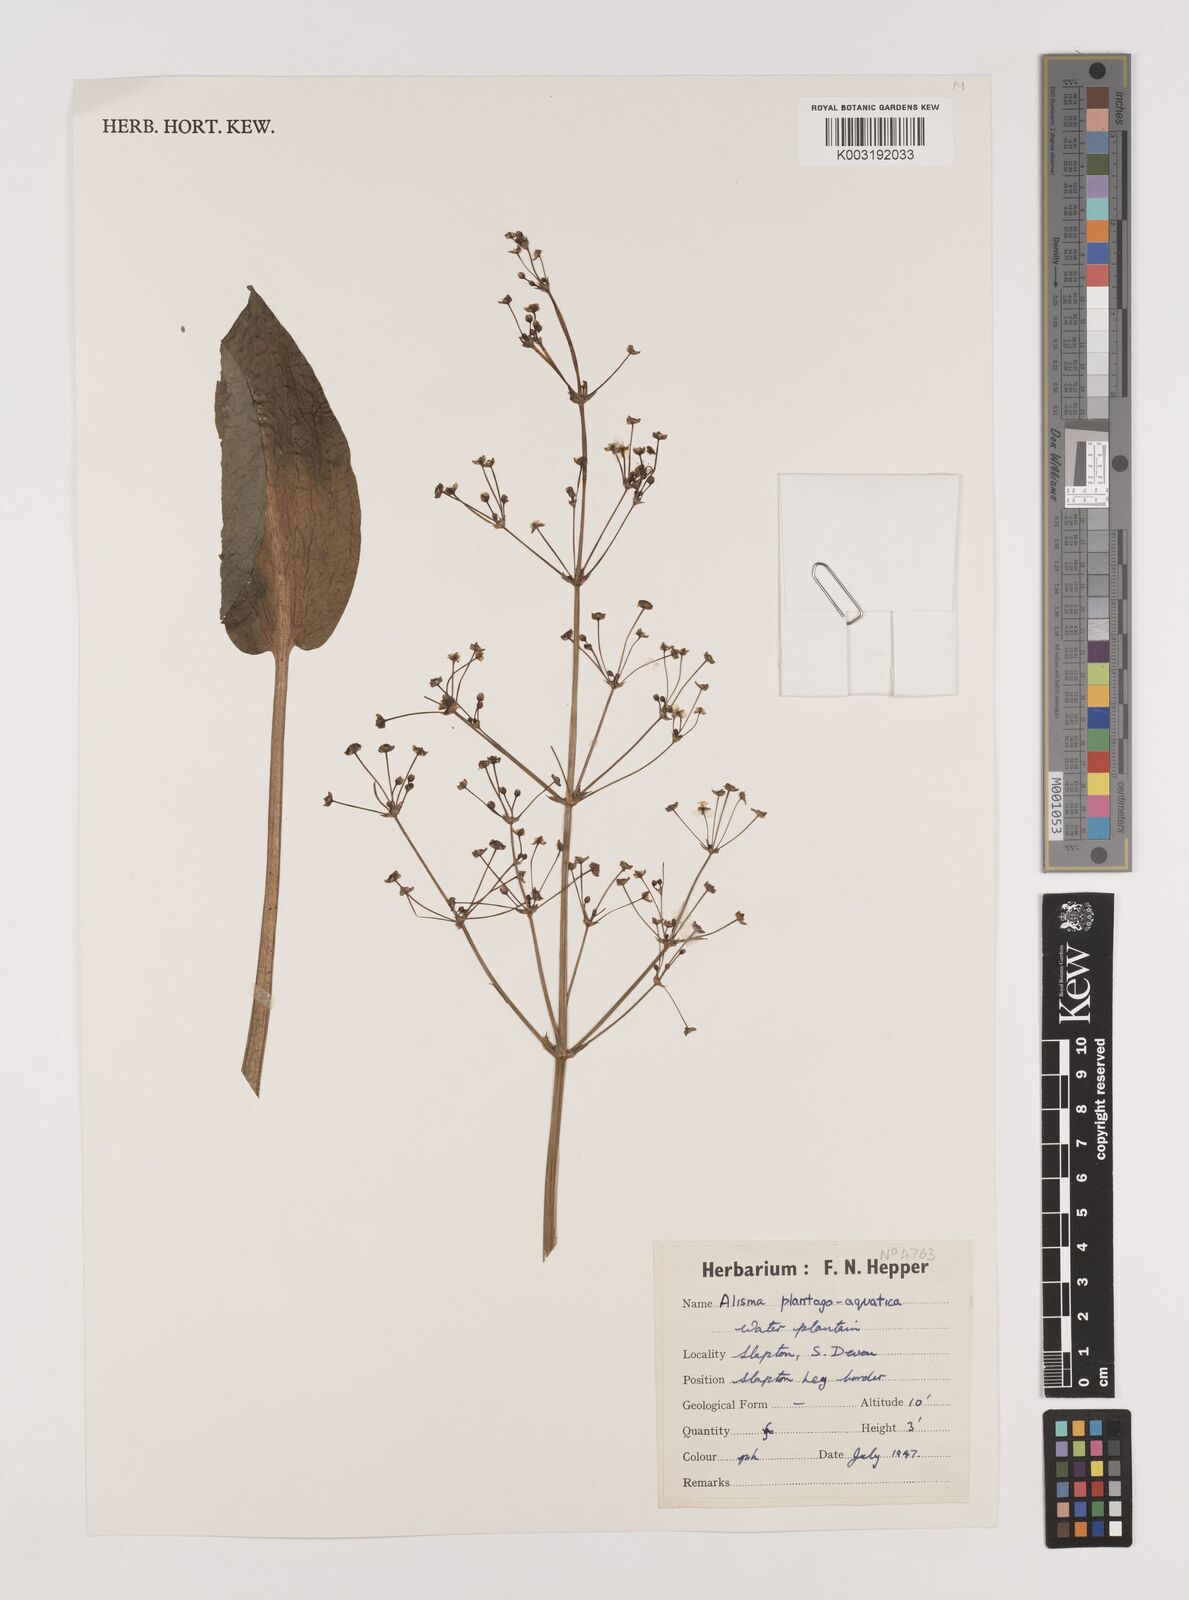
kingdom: Plantae
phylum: Tracheophyta
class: Liliopsida
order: Alismatales
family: Alismataceae
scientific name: Alismataceae
